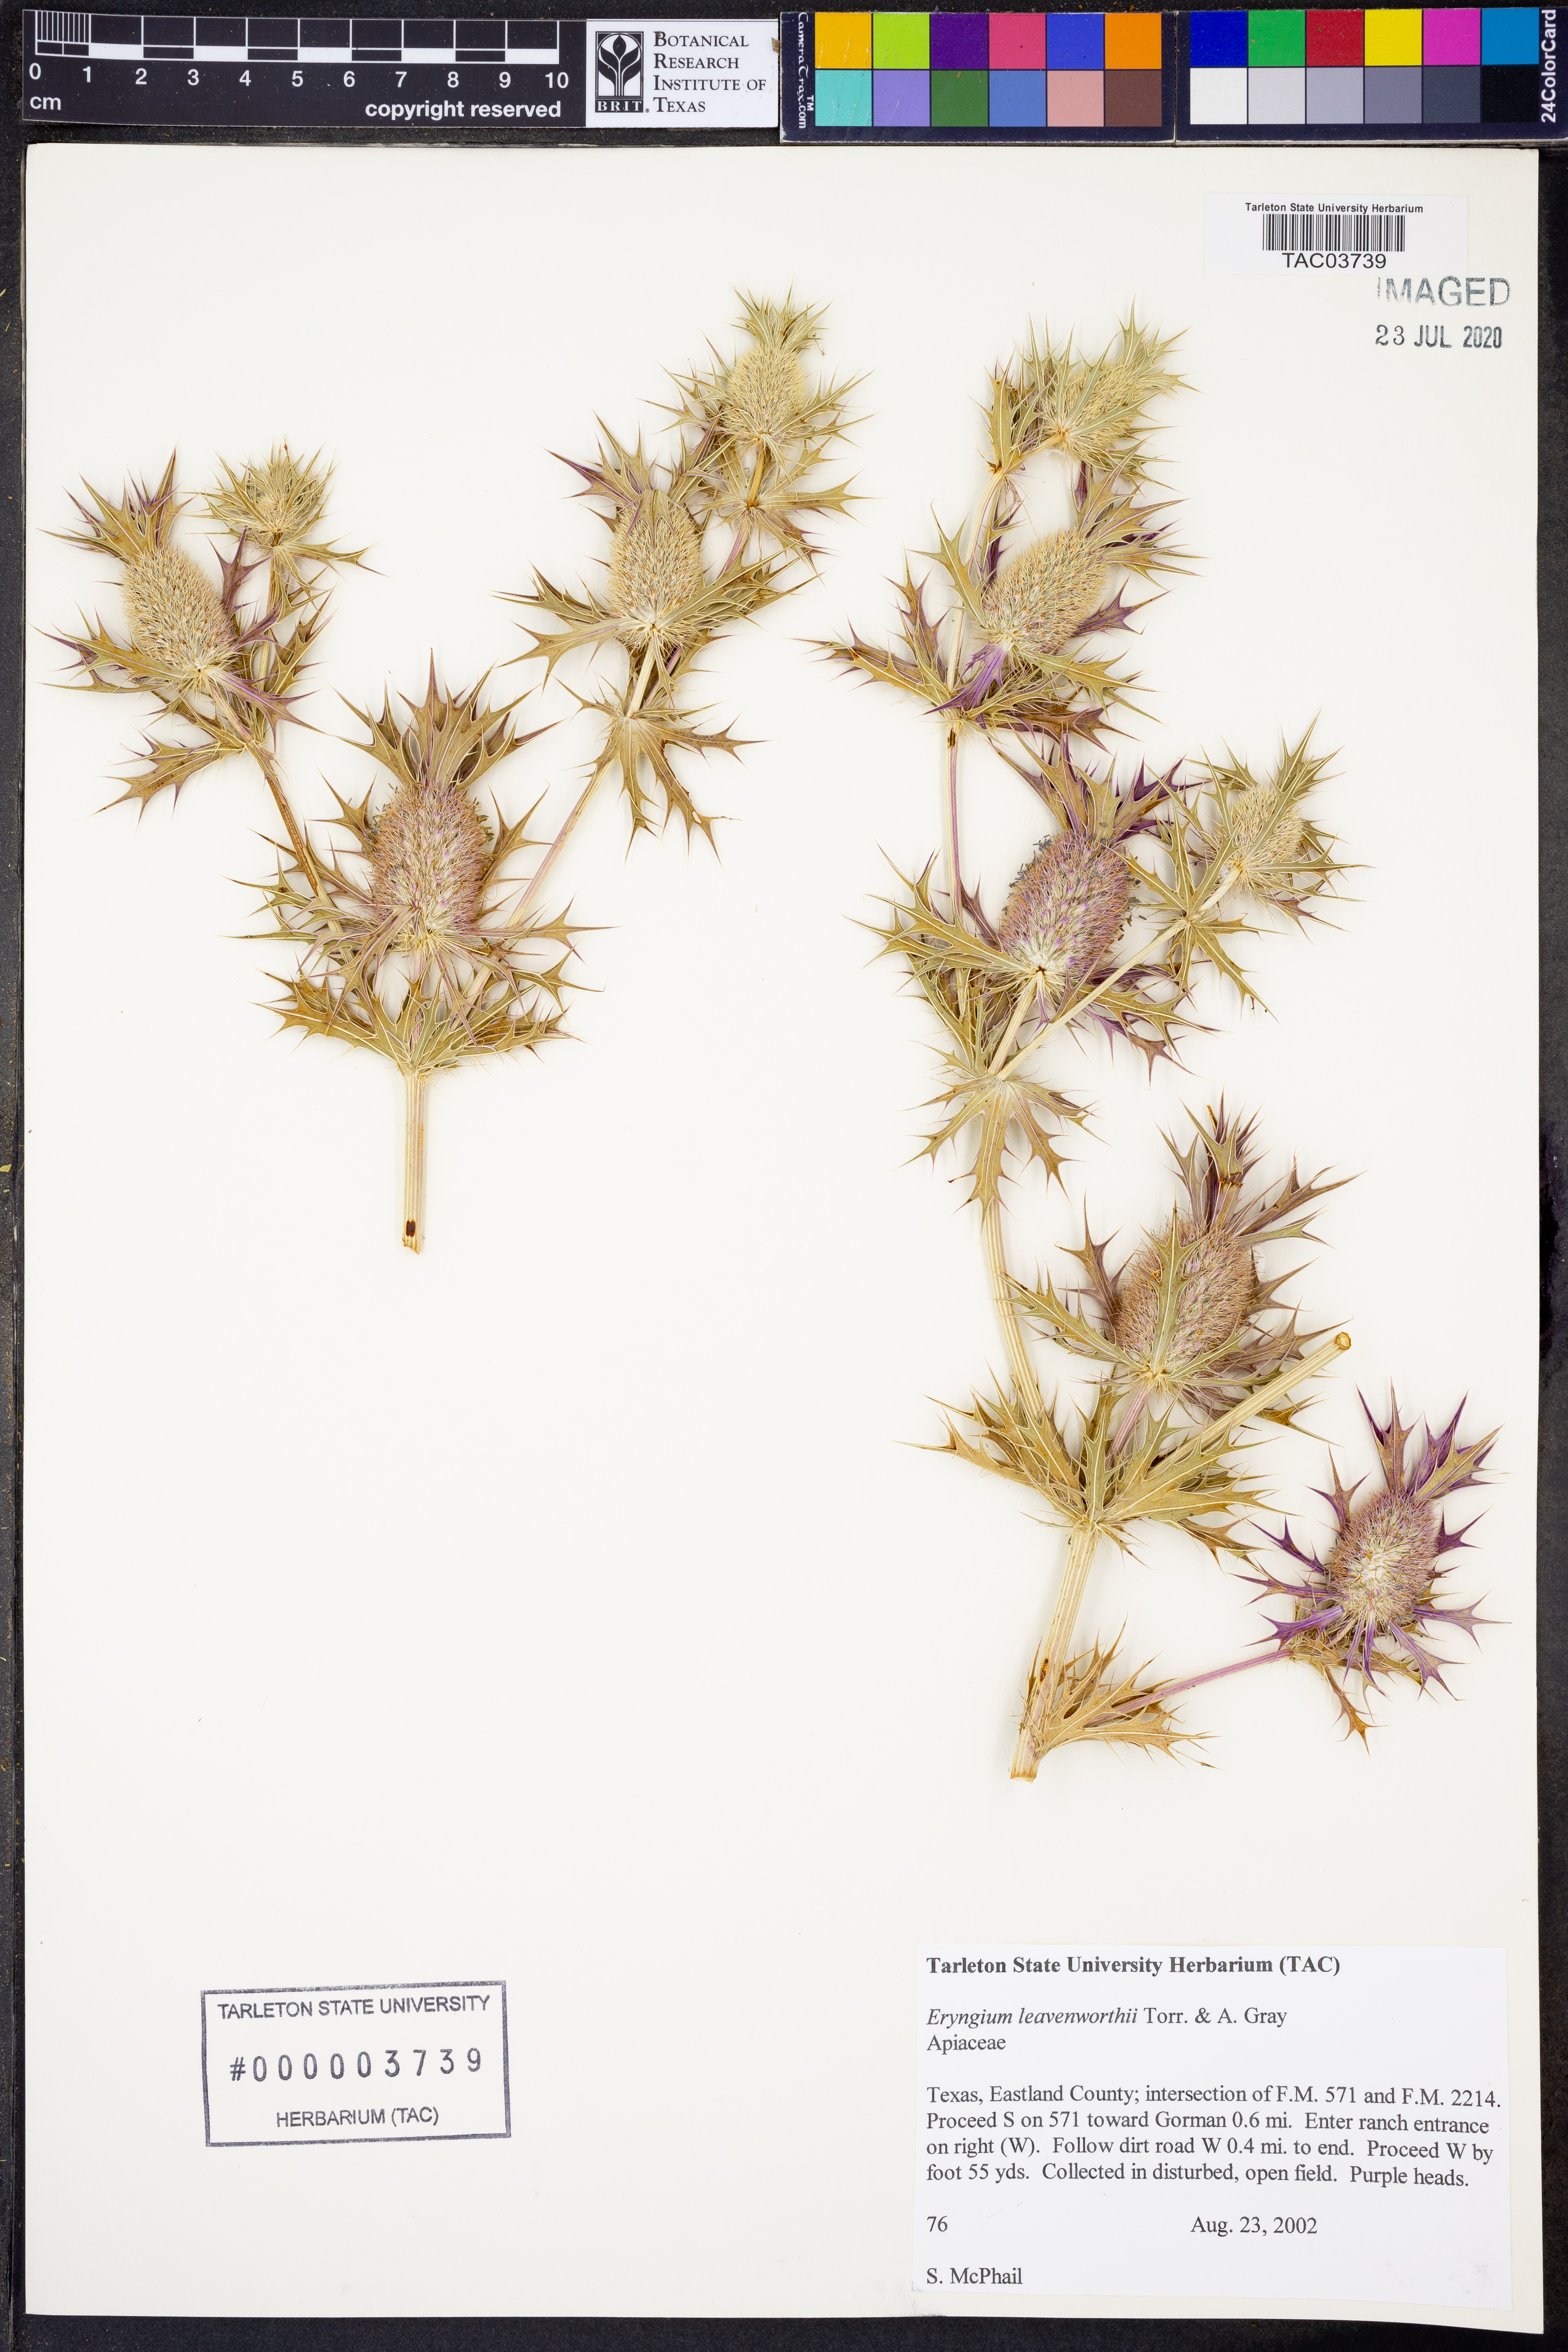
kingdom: Plantae
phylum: Tracheophyta
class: Magnoliopsida
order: Apiales
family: Apiaceae
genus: Eryngium
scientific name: Eryngium leavenworthii
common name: Leavenworth's eryngo
